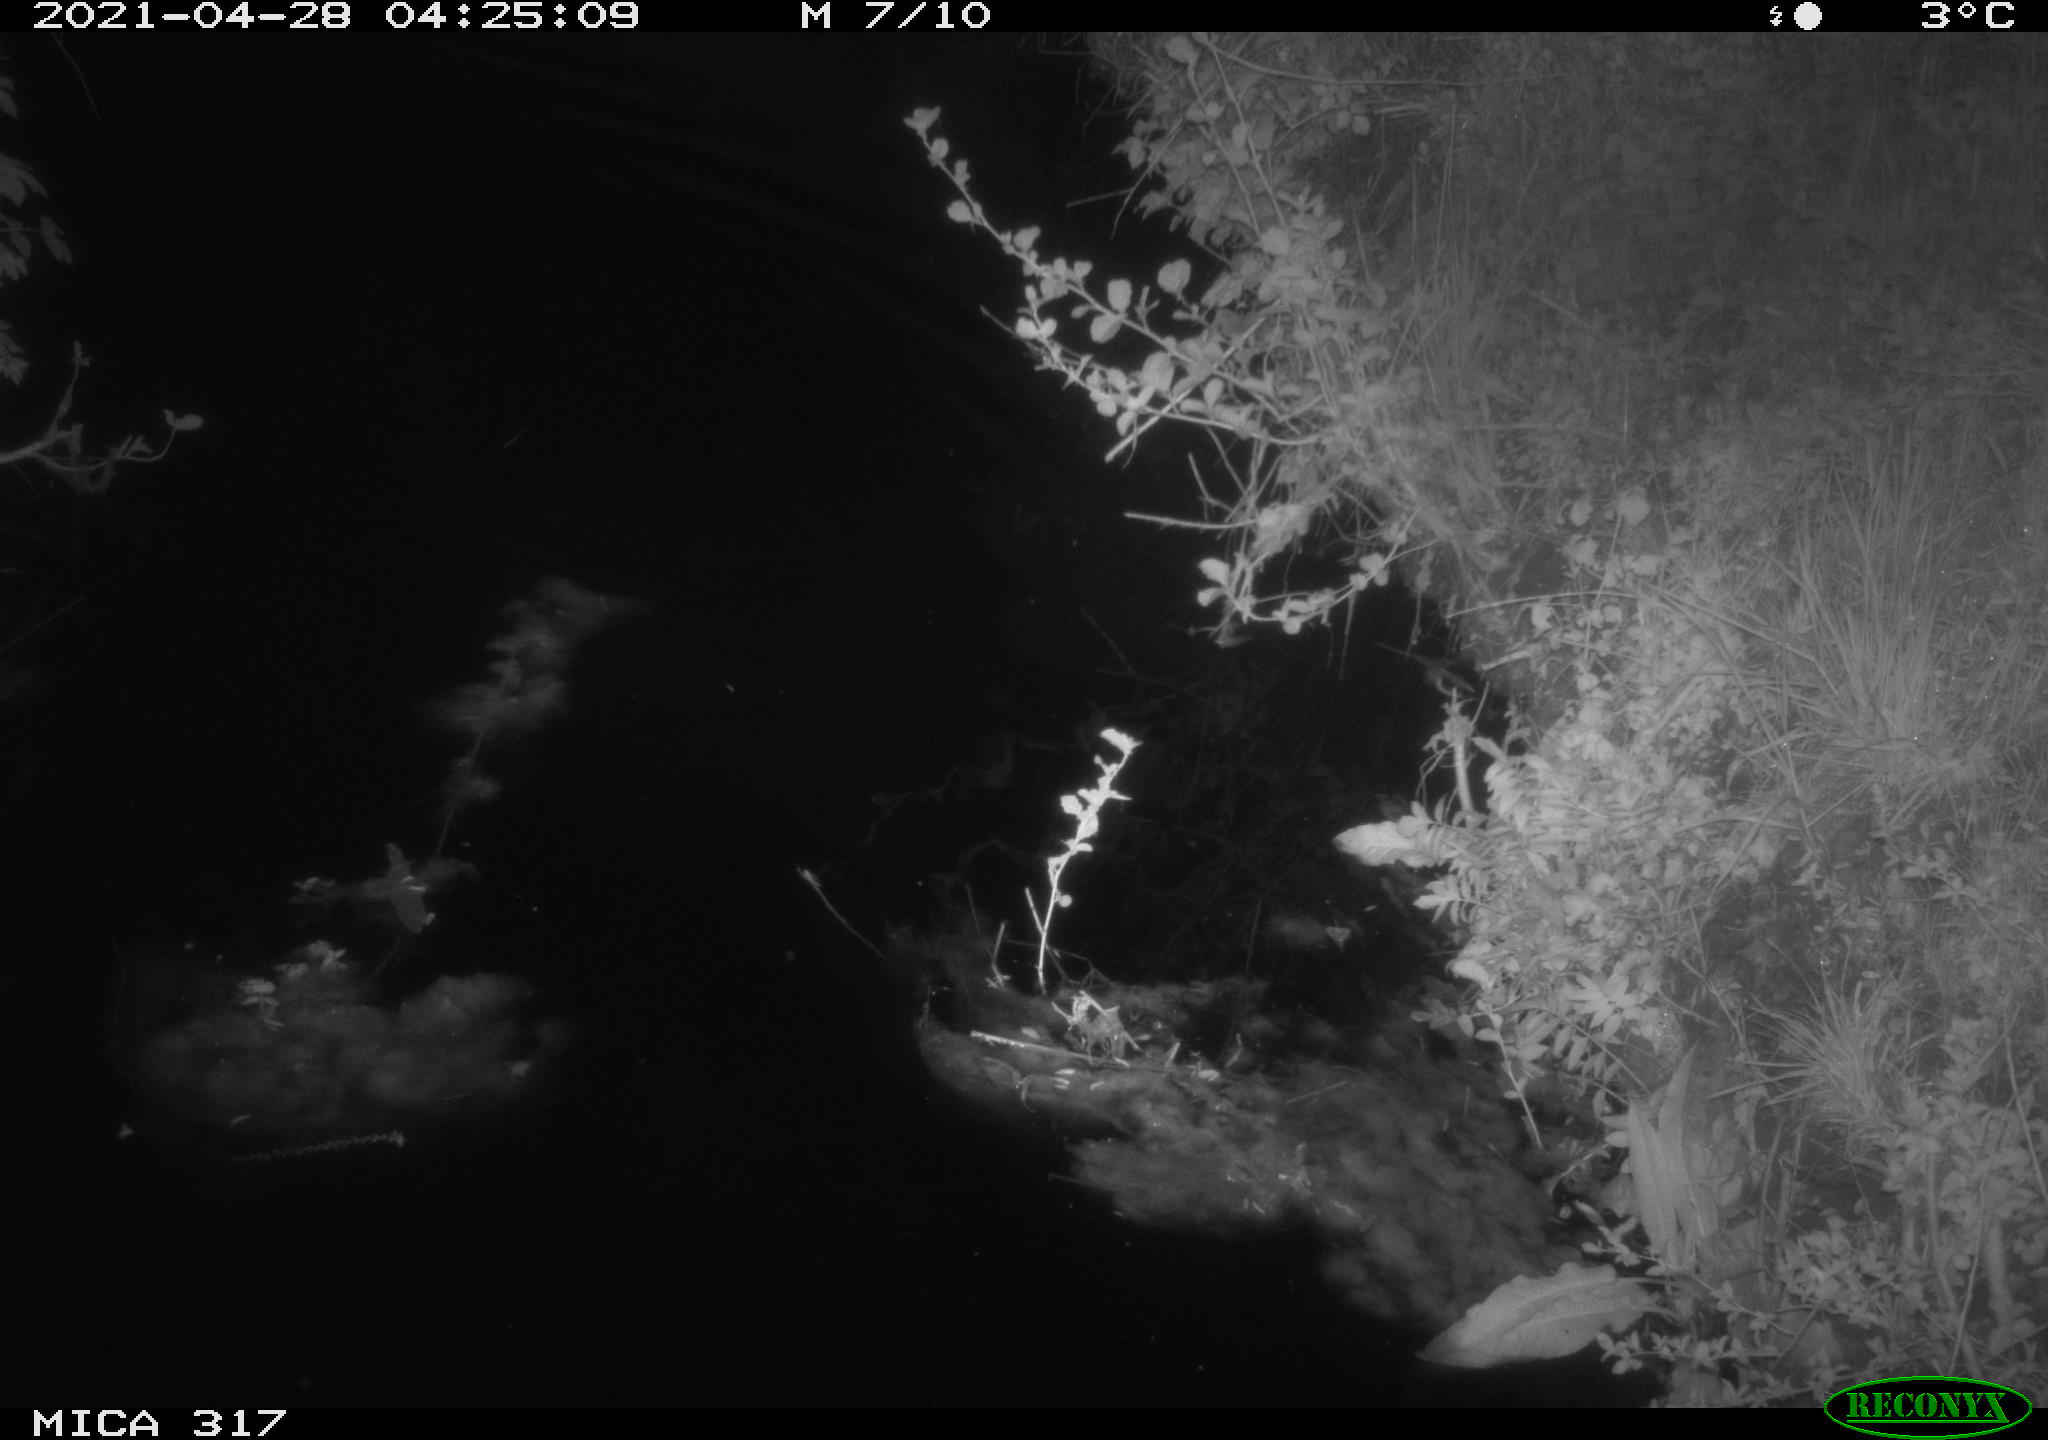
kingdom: Animalia
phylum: Chordata
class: Aves
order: Anseriformes
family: Anatidae
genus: Anas
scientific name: Anas
